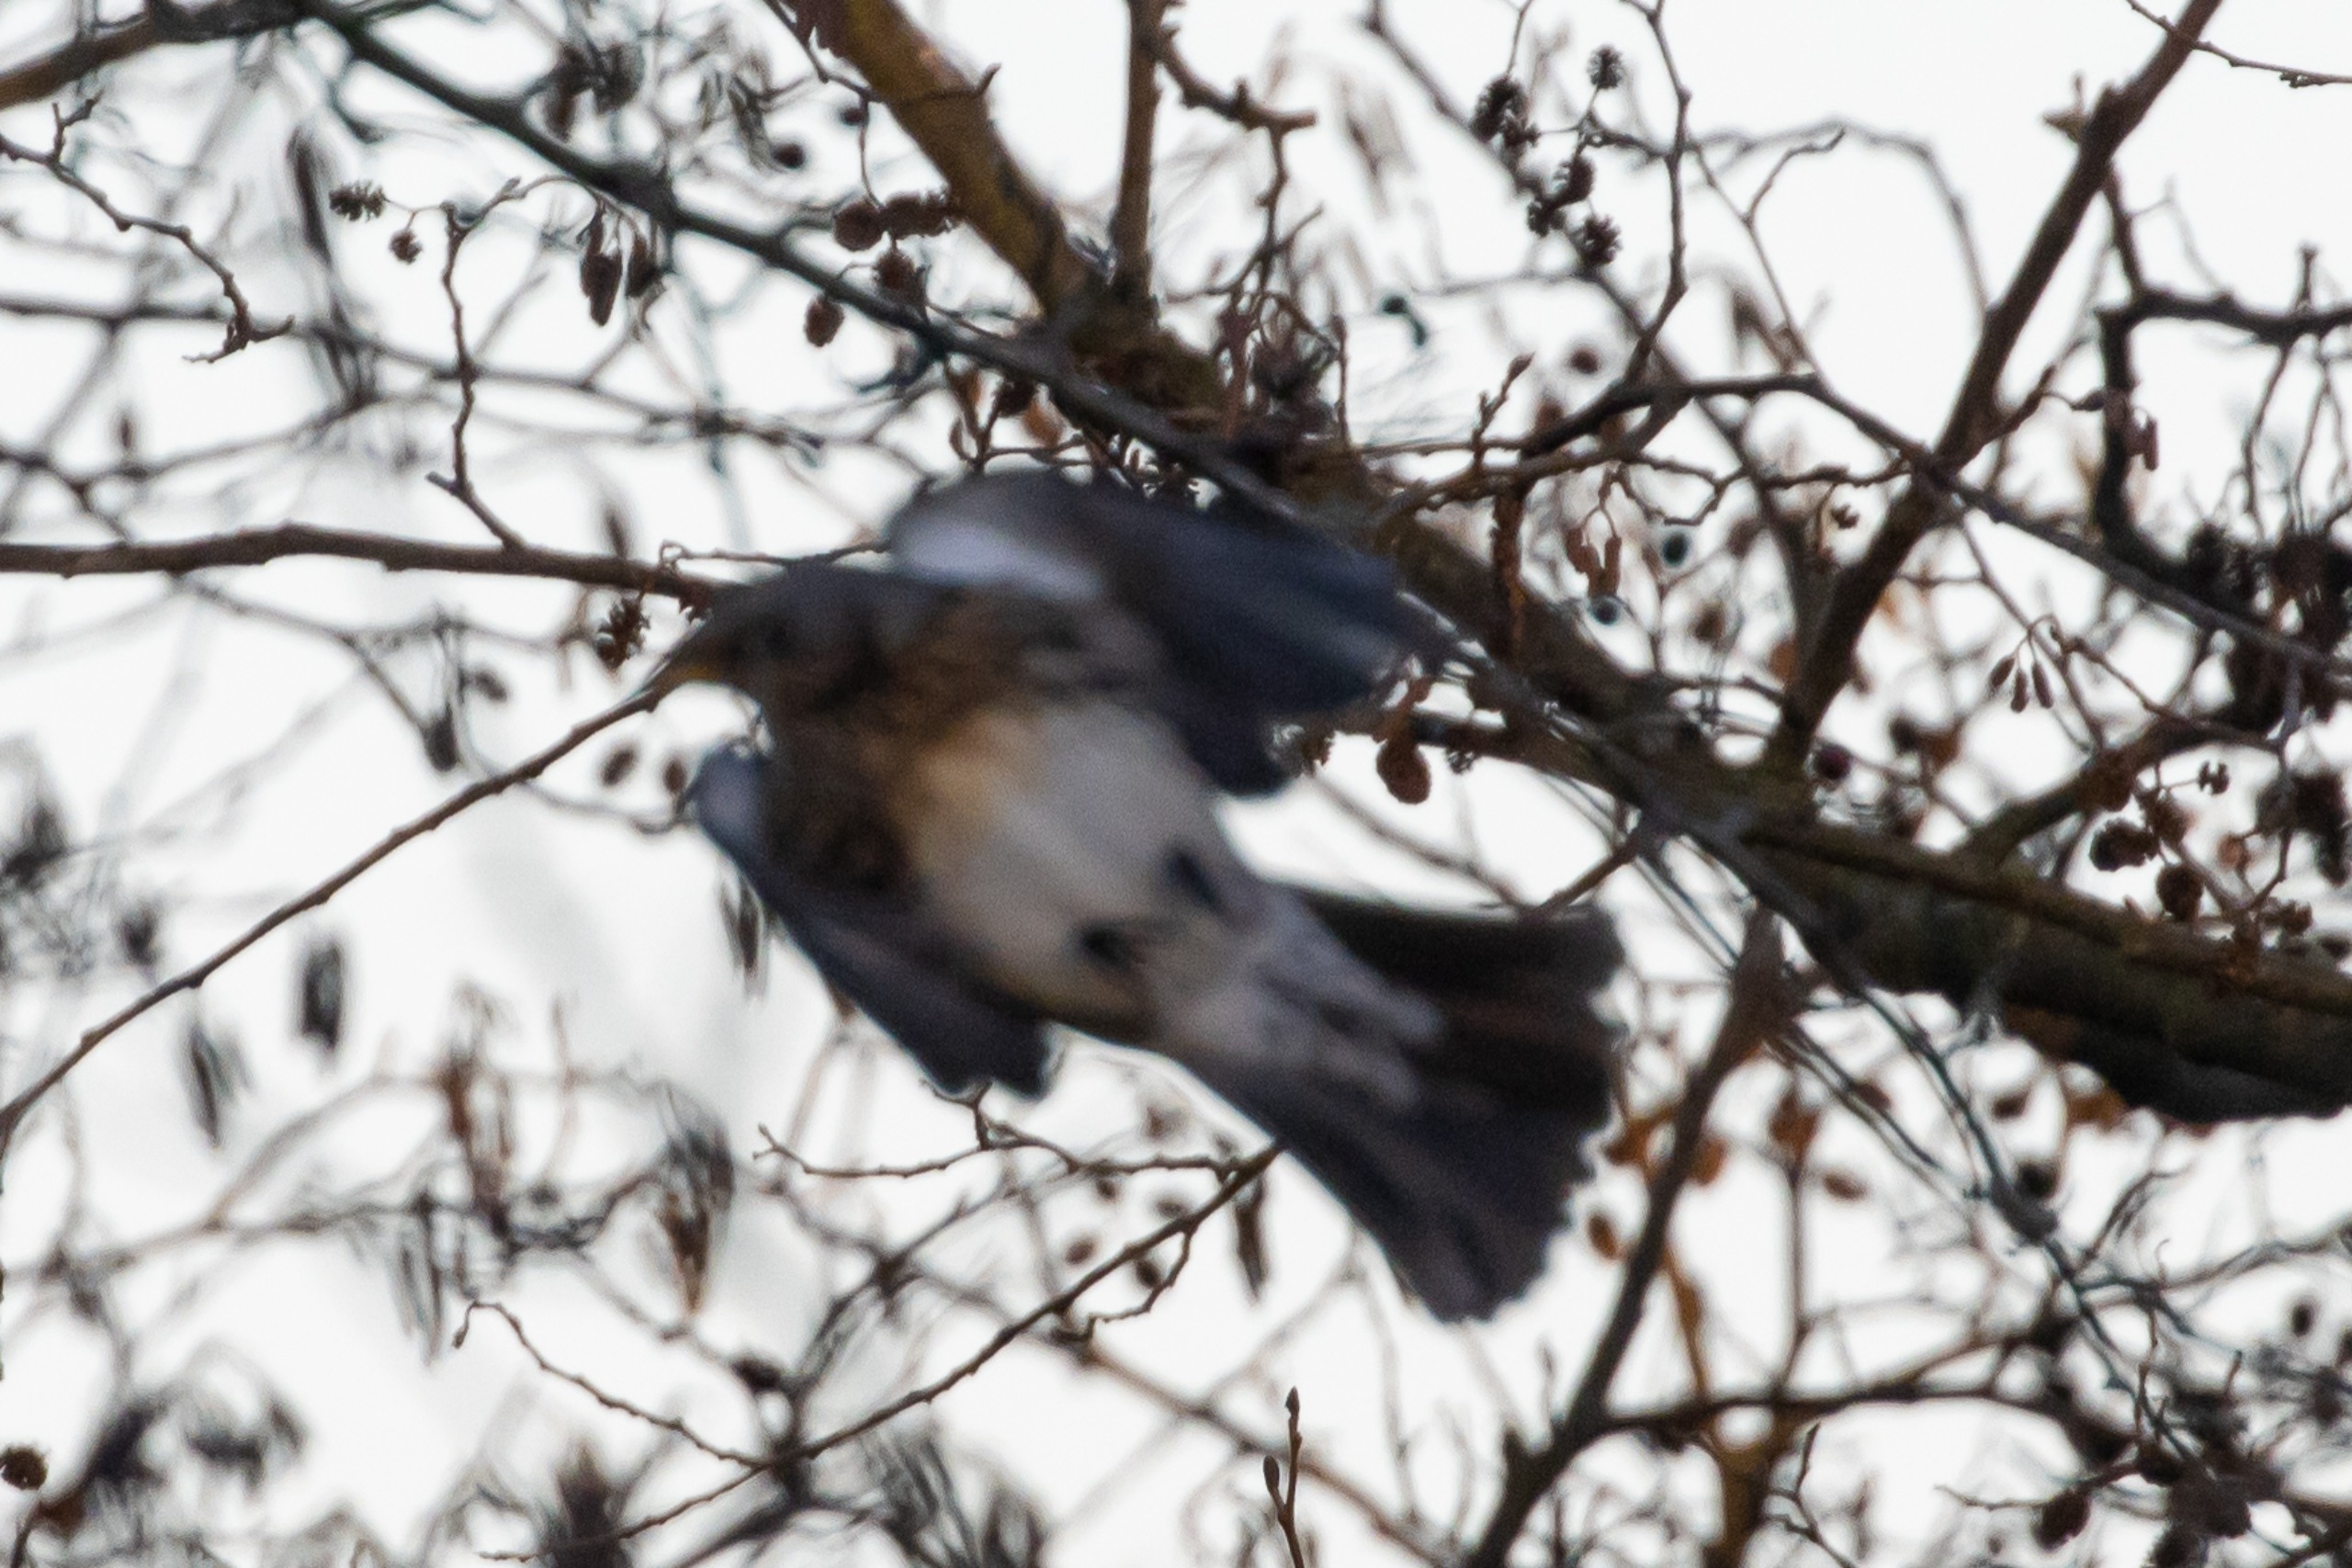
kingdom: Animalia
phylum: Chordata
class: Aves
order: Passeriformes
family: Turdidae
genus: Turdus
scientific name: Turdus pilaris
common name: Sjagger
